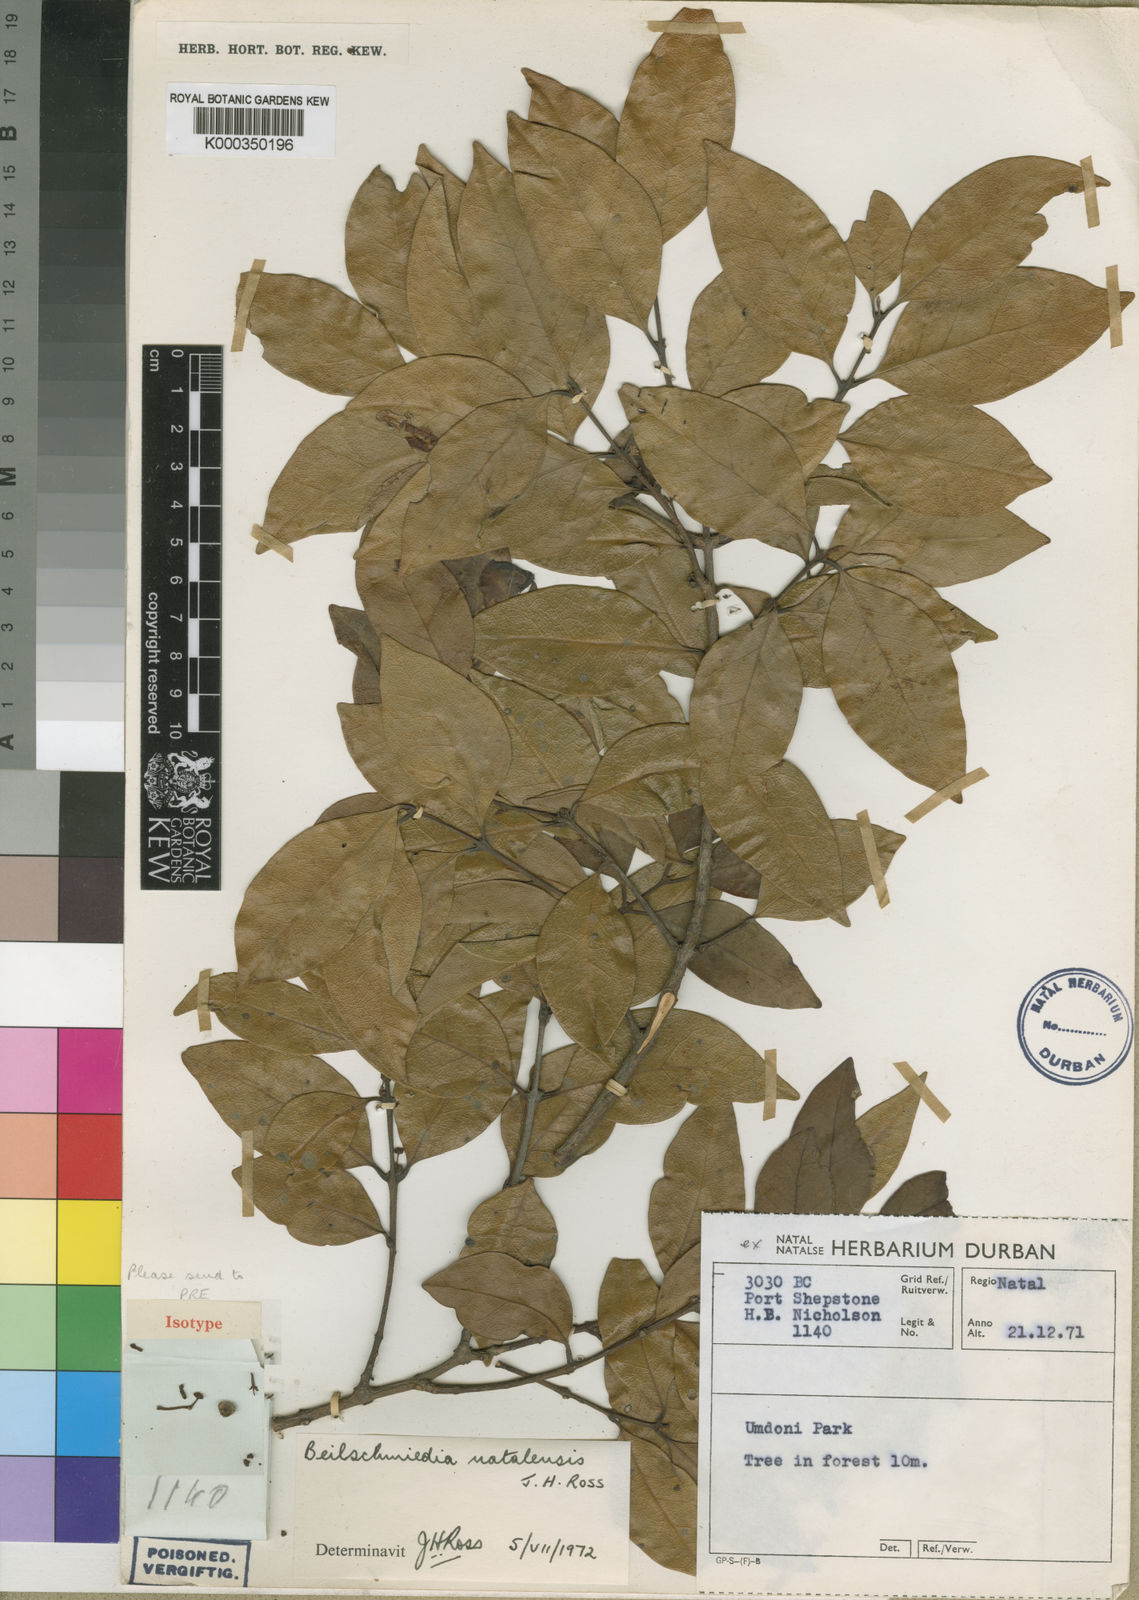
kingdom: Plantae
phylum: Tracheophyta
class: Magnoliopsida
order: Laurales
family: Lauraceae
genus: Cryptocarya
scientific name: Cryptocarya
